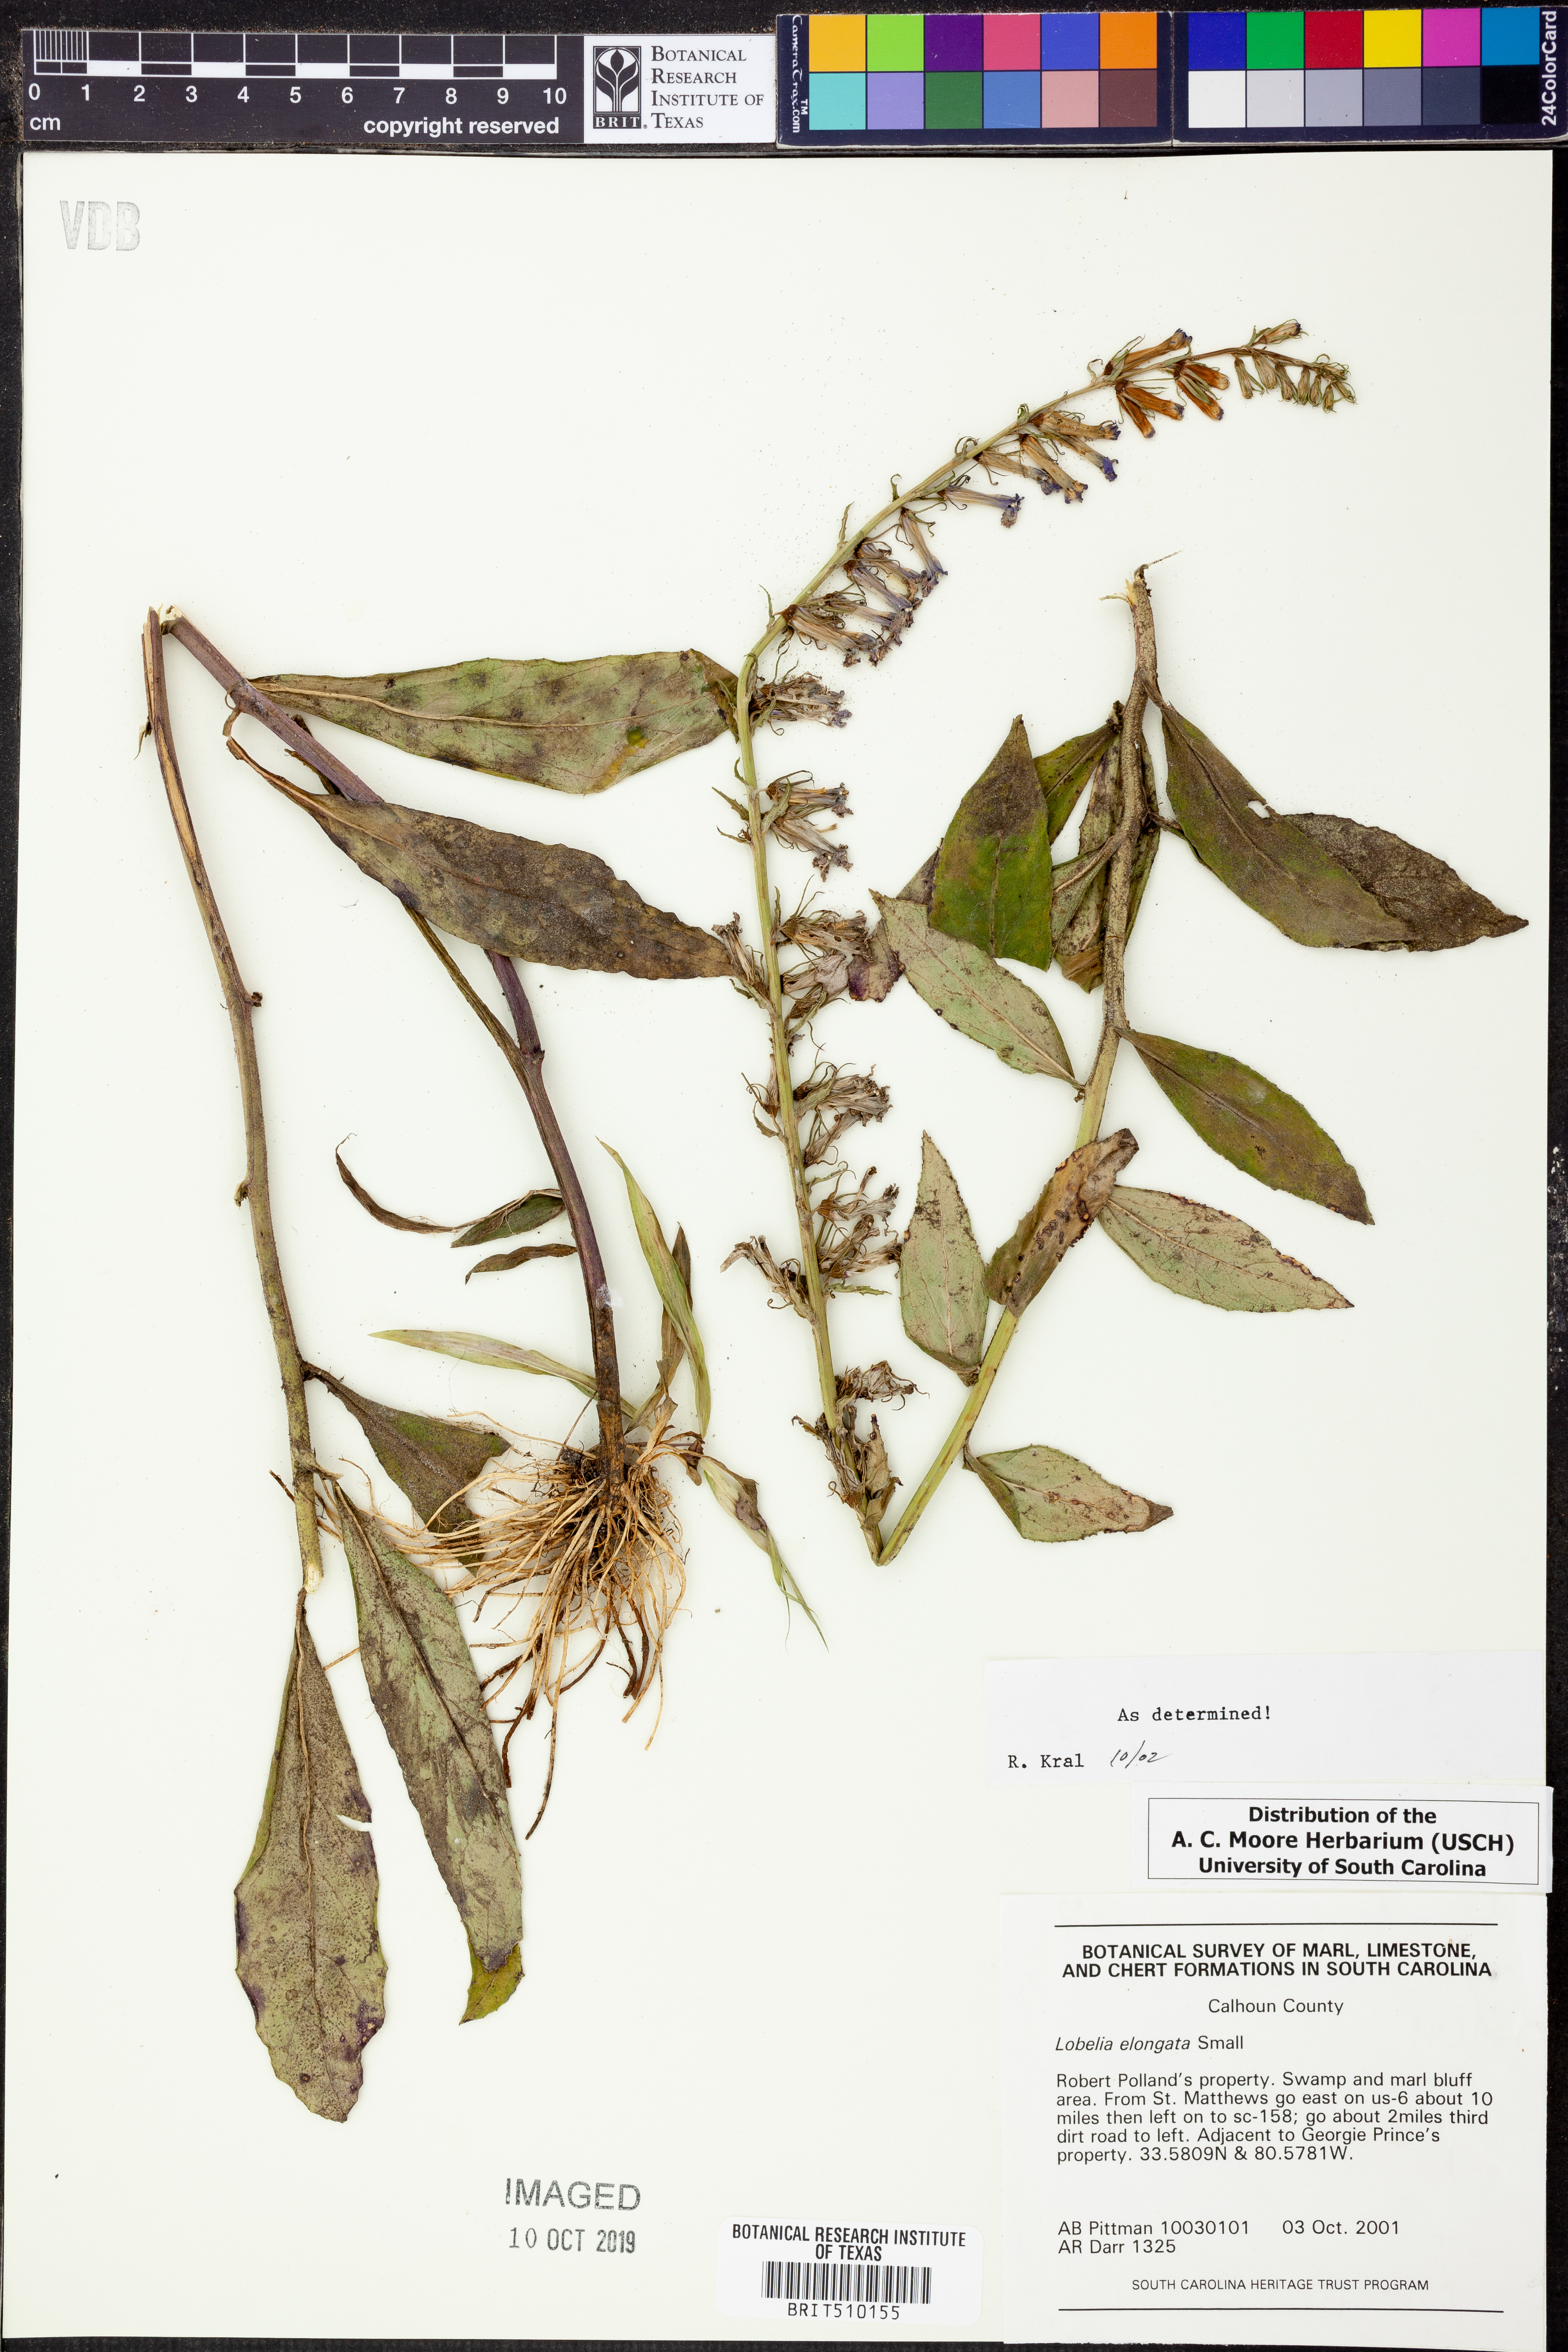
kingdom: Plantae
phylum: Tracheophyta
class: Magnoliopsida
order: Asterales
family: Campanulaceae
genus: Lobelia
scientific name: Lobelia elongata
